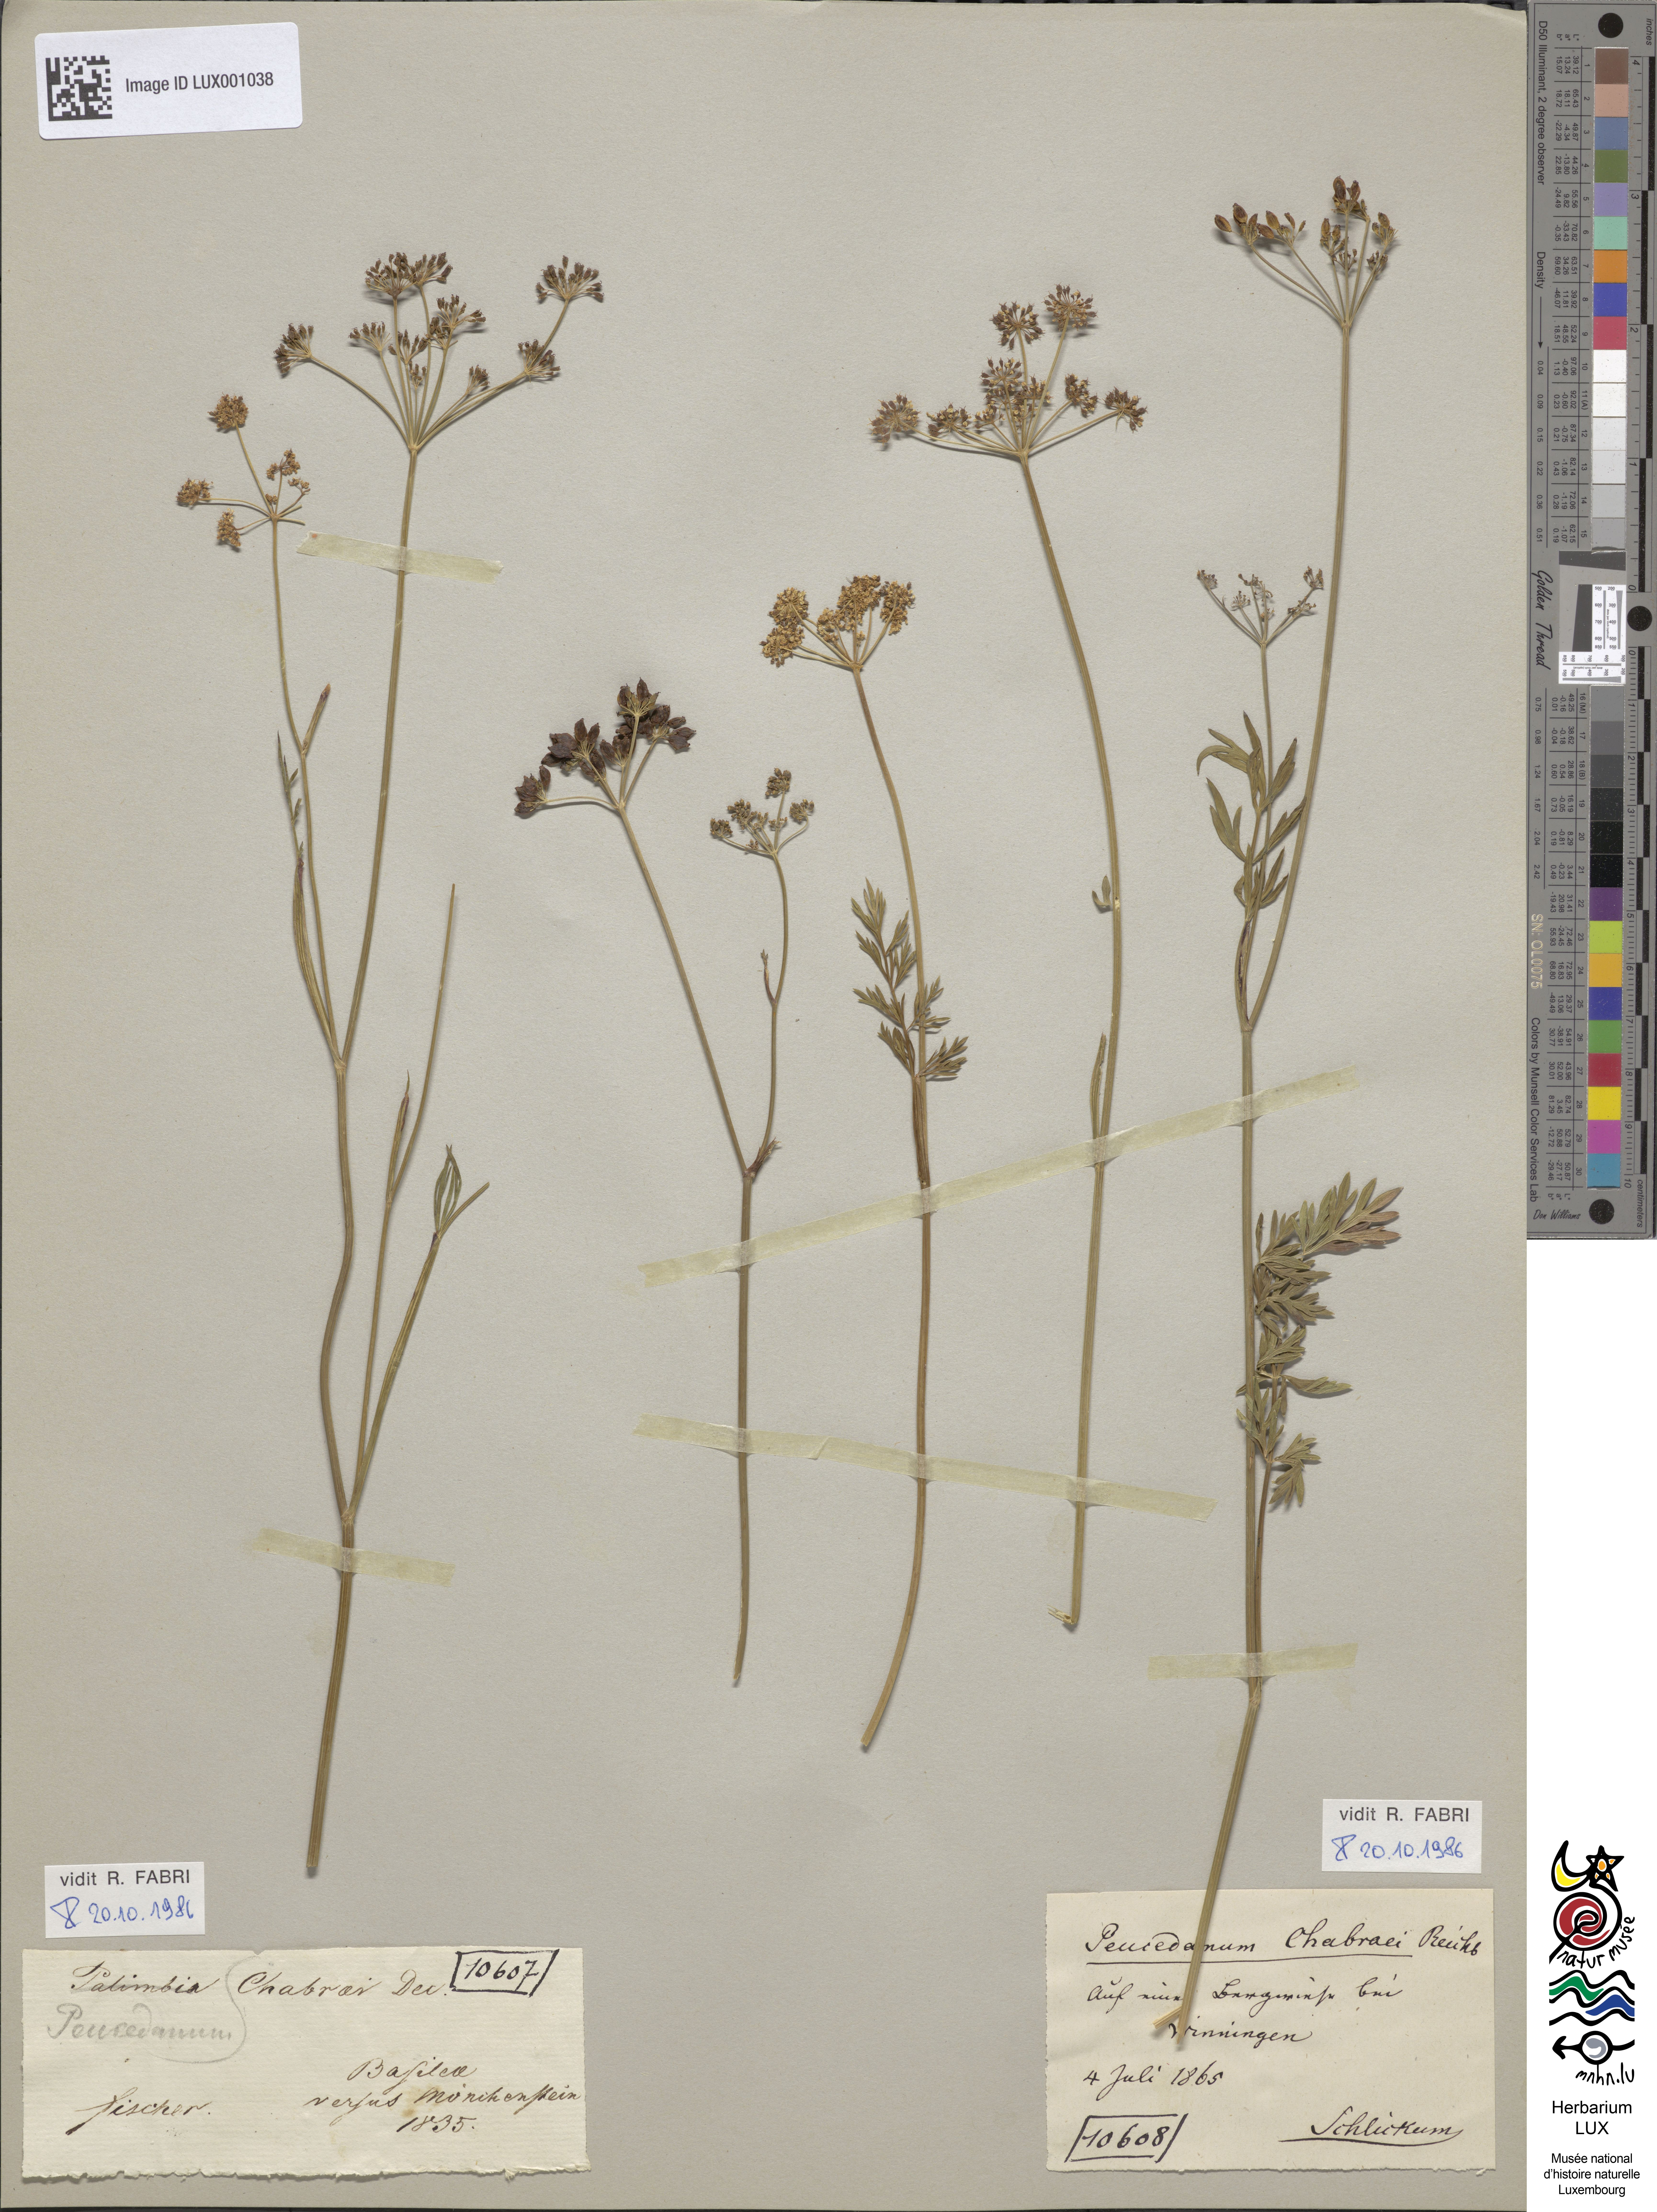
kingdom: Plantae
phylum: Tracheophyta
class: Magnoliopsida
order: Apiales
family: Apiaceae
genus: Dichoropetalum
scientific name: Dichoropetalum carvifolia
